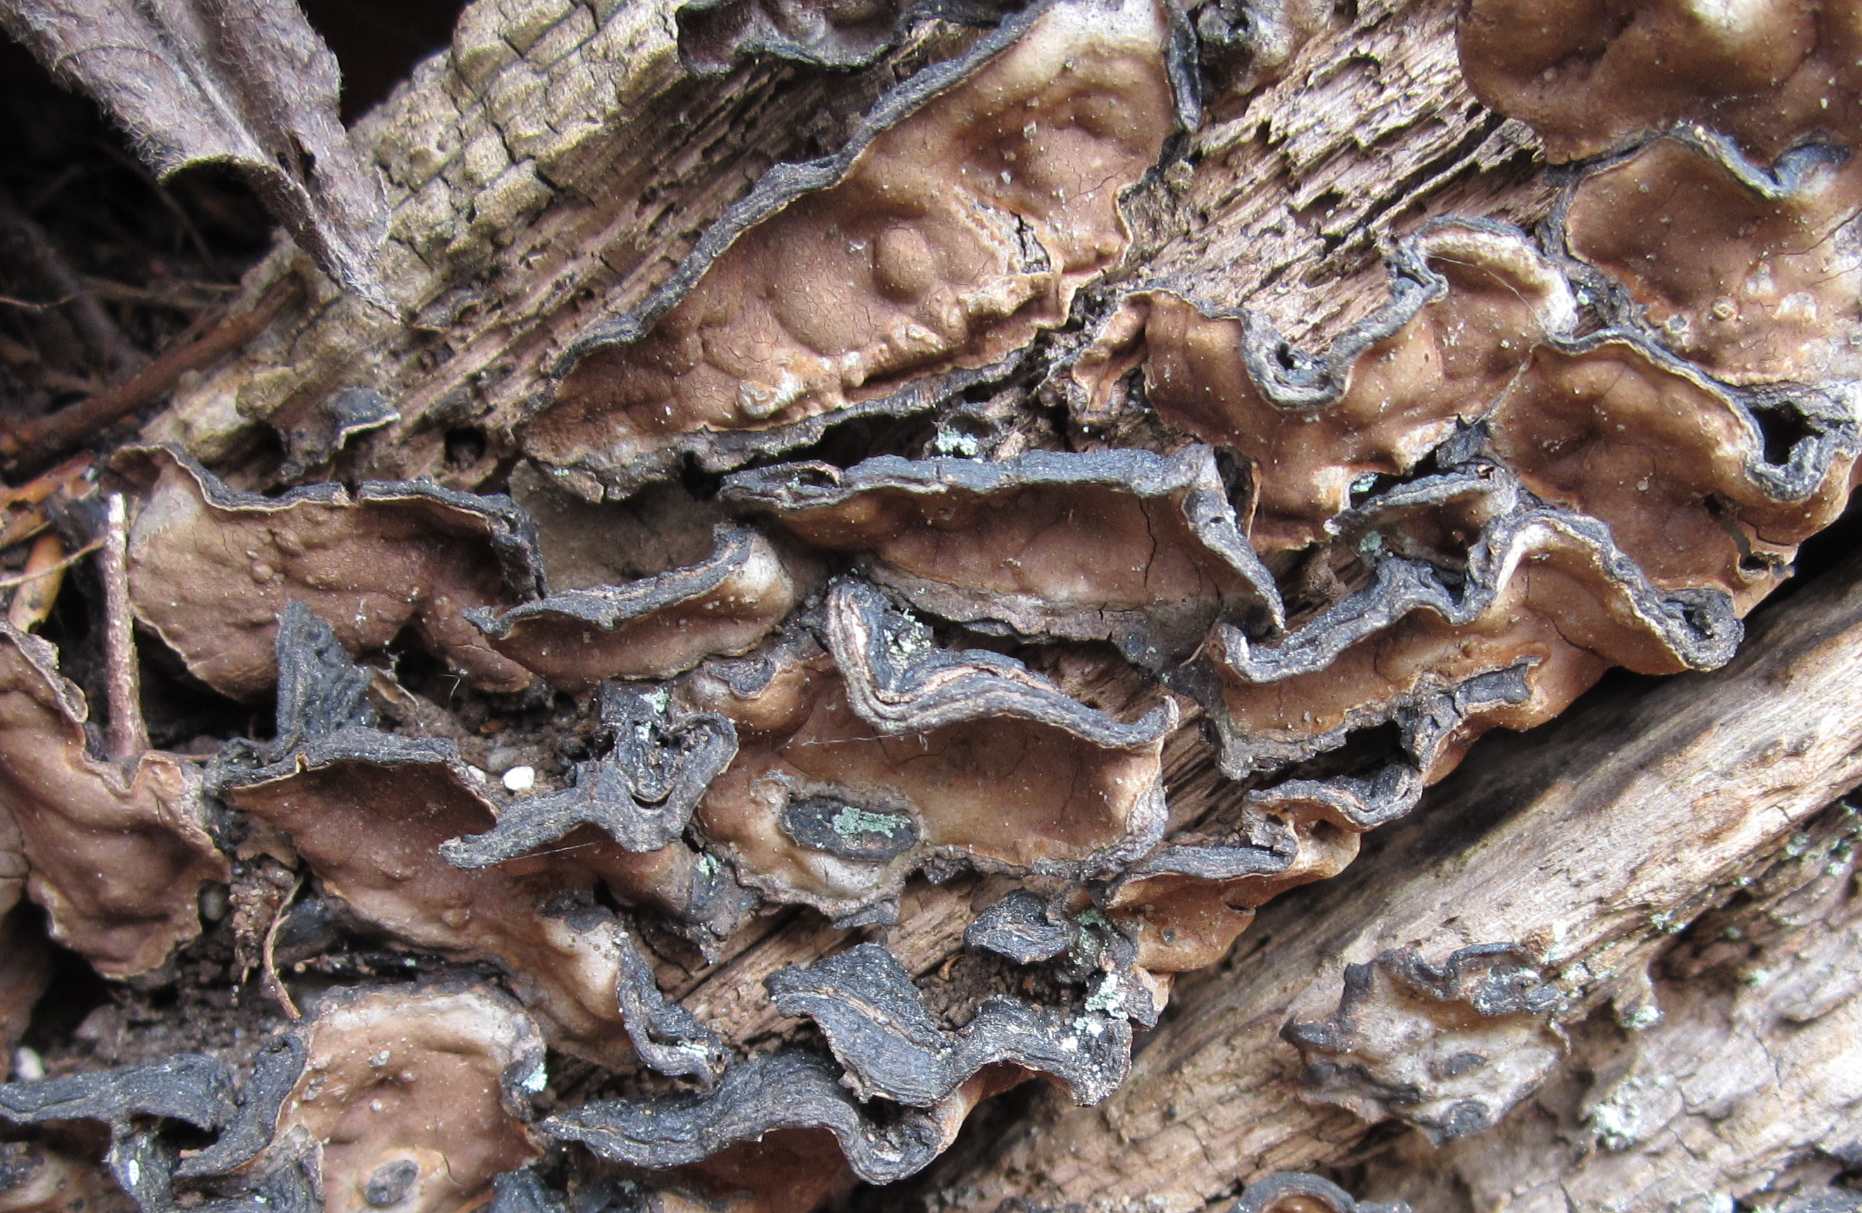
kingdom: Fungi
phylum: Basidiomycota
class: Agaricomycetes
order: Hymenochaetales
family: Hymenochaetaceae
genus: Hymenochaete
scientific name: Hymenochaete rubiginosa
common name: stiv ruslædersvamp
